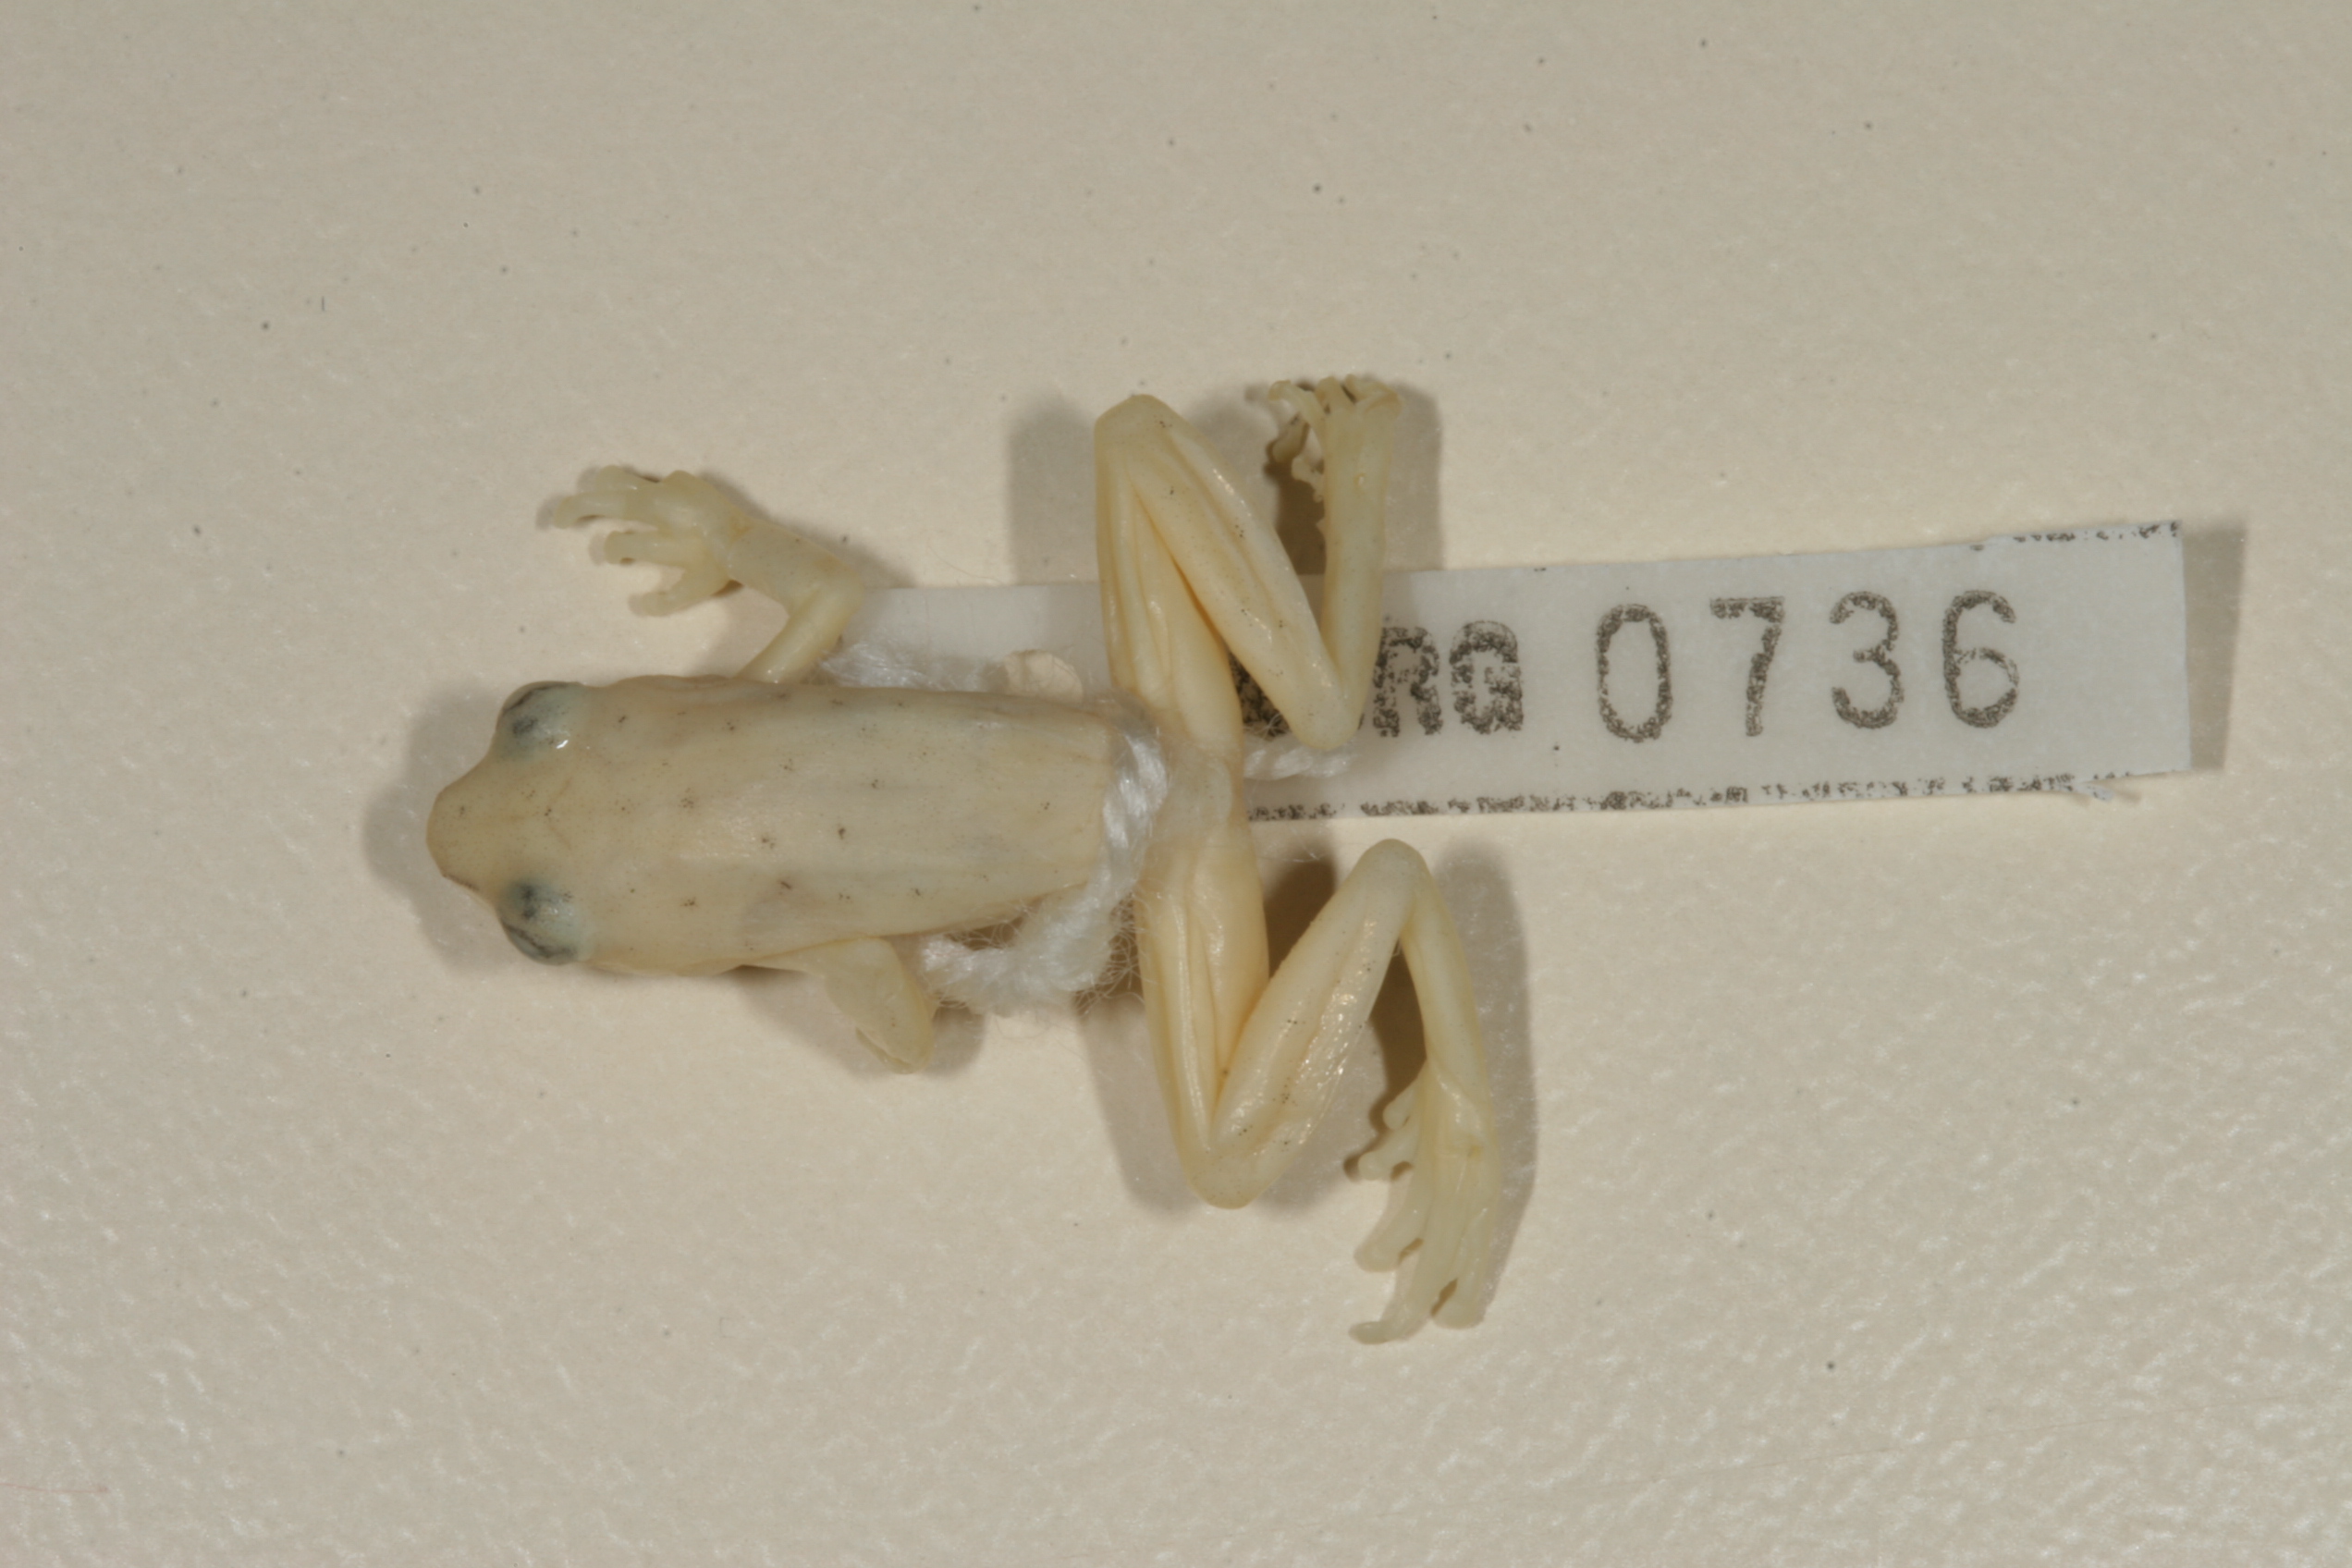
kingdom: Animalia
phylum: Chordata
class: Amphibia
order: Anura
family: Hyperoliidae
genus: Hyperolius
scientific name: Hyperolius marmoratus
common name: Painted reed frog
